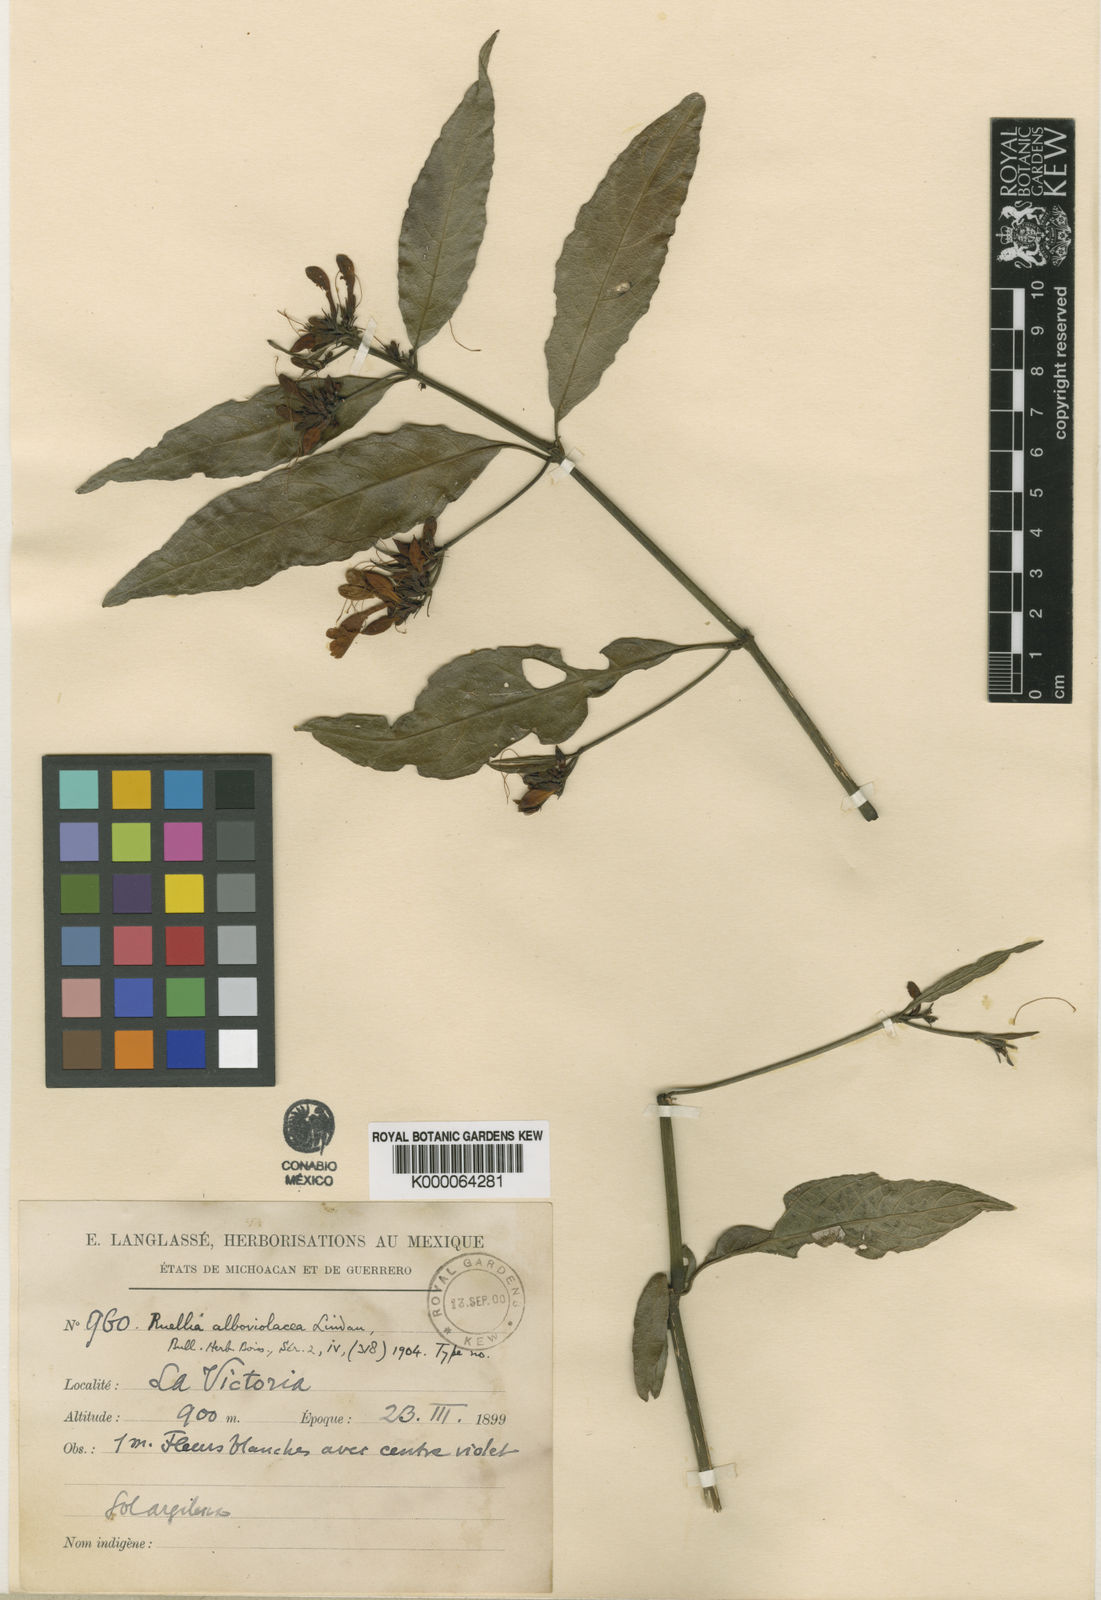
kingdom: Plantae
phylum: Tracheophyta
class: Magnoliopsida
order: Lamiales
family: Acanthaceae
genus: Ruellia
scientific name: Ruellia alboviolacea
